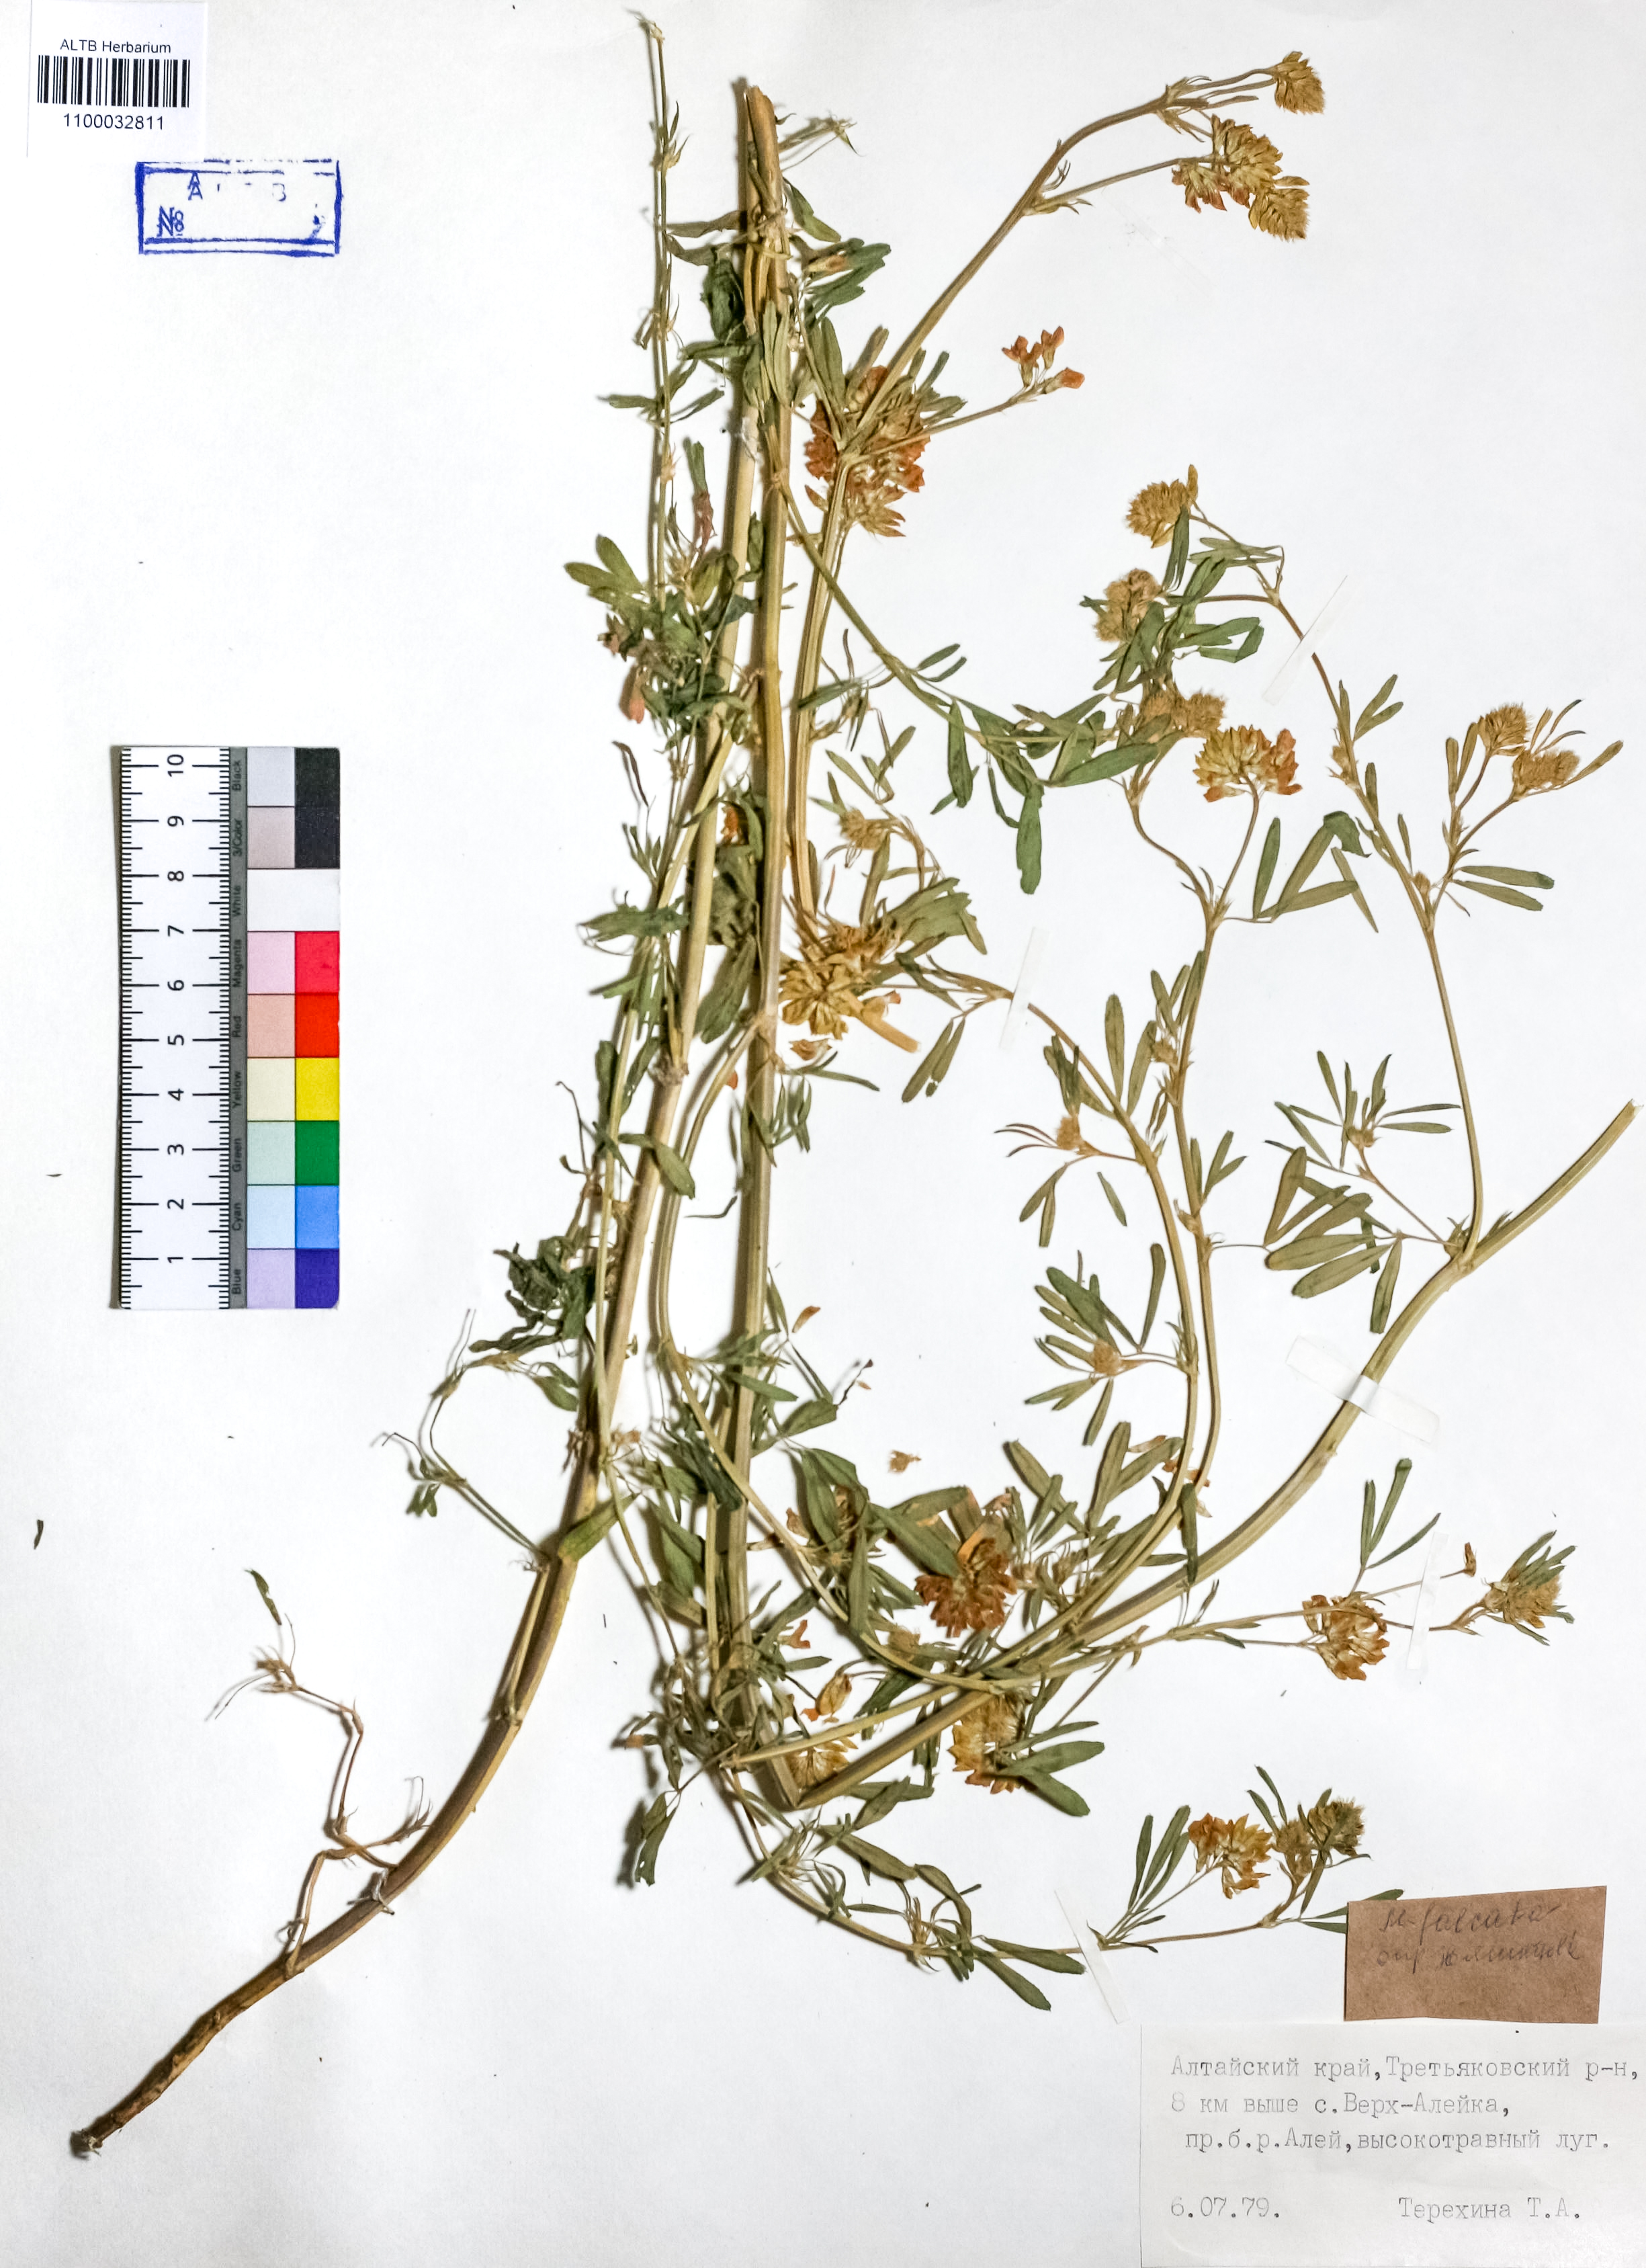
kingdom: Plantae
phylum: Tracheophyta
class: Magnoliopsida
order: Fabales
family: Fabaceae
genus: Medicago
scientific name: Medicago falcata
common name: Sickle medick
